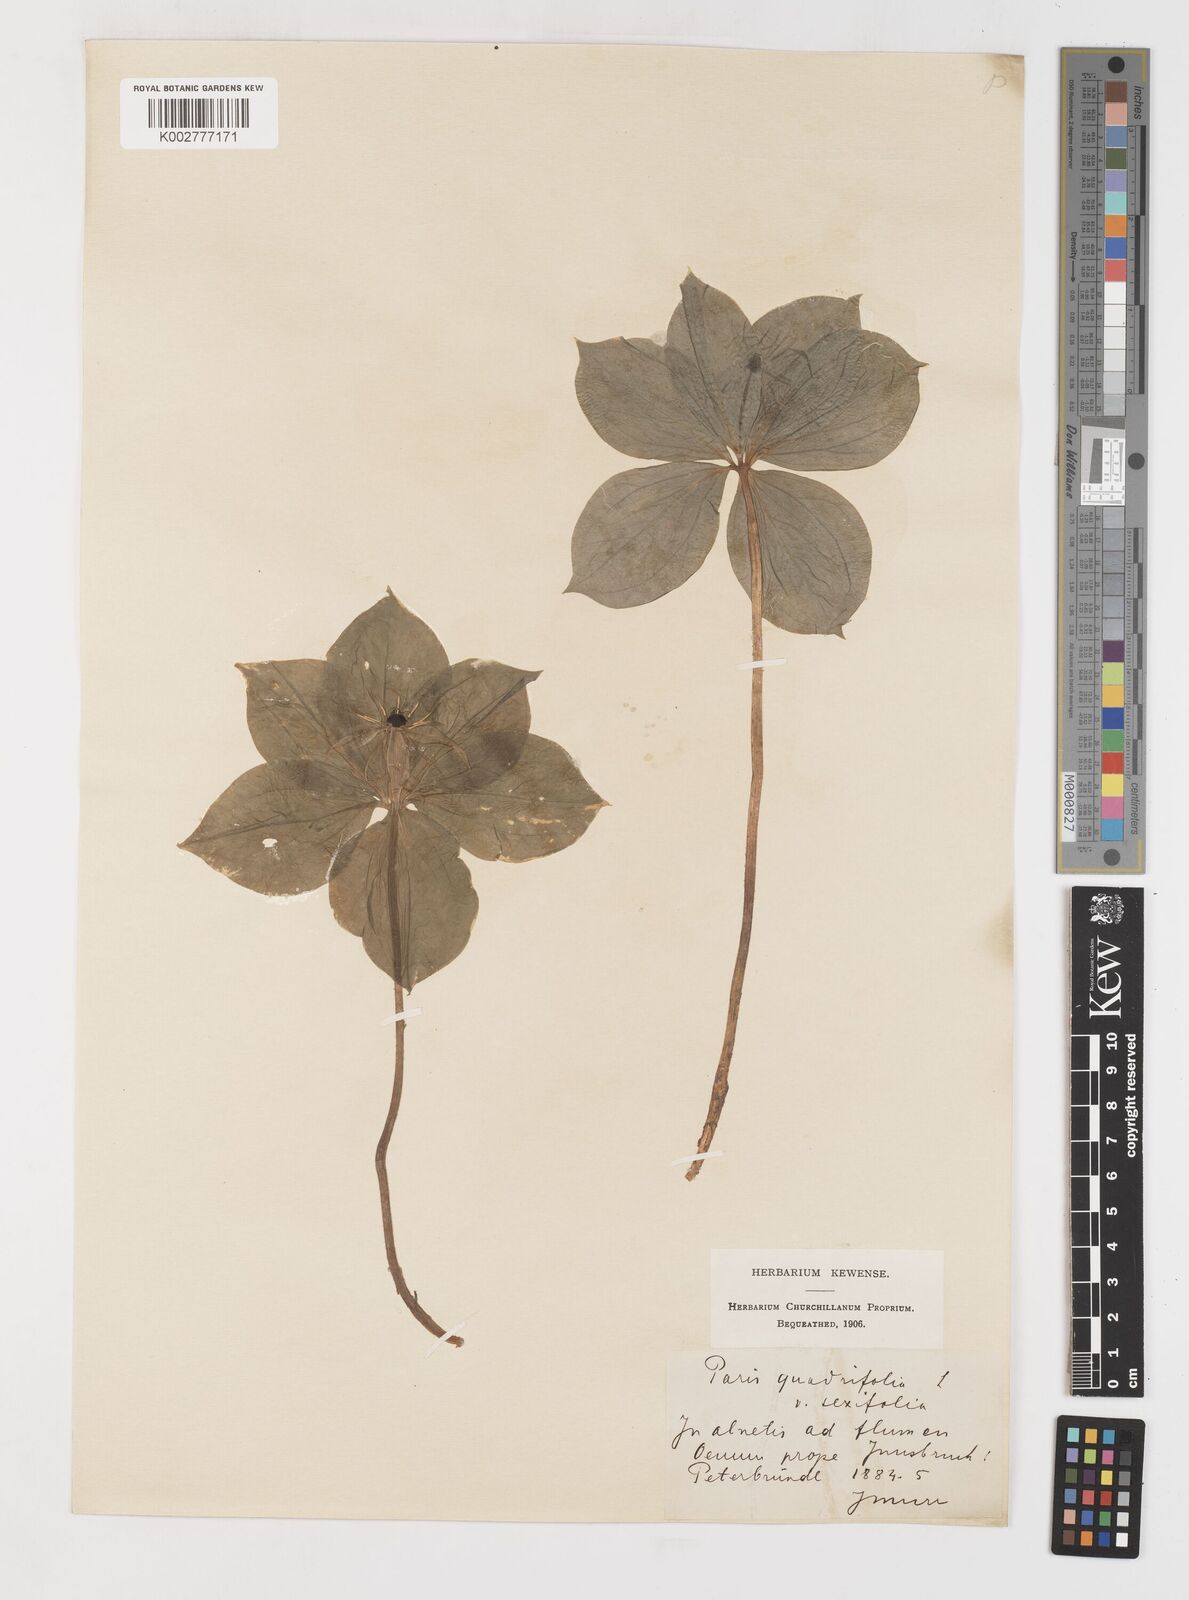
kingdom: Plantae
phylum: Tracheophyta
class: Liliopsida
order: Liliales
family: Melanthiaceae
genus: Paris
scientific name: Paris quadrifolia
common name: Herb-paris
